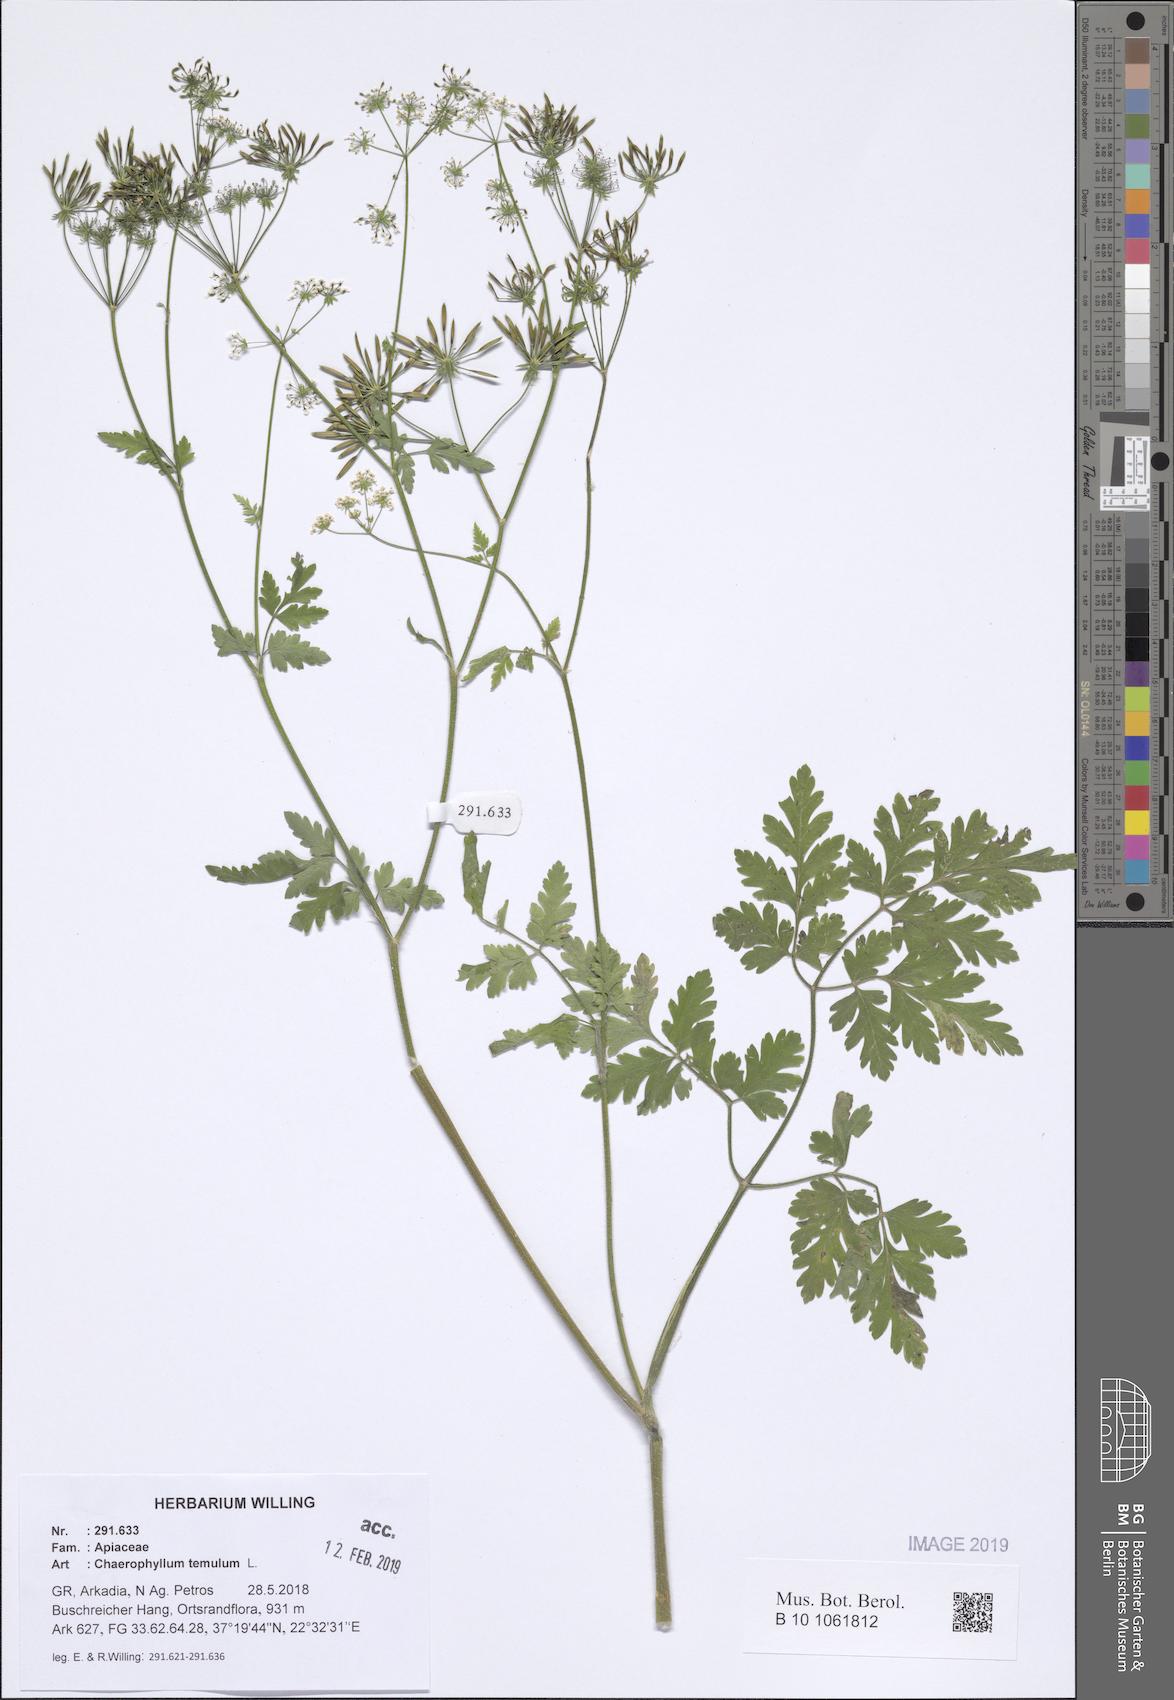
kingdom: Plantae
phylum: Tracheophyta
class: Magnoliopsida
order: Apiales
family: Apiaceae
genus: Chaerophyllum
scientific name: Chaerophyllum temulum
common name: Rough chervil
